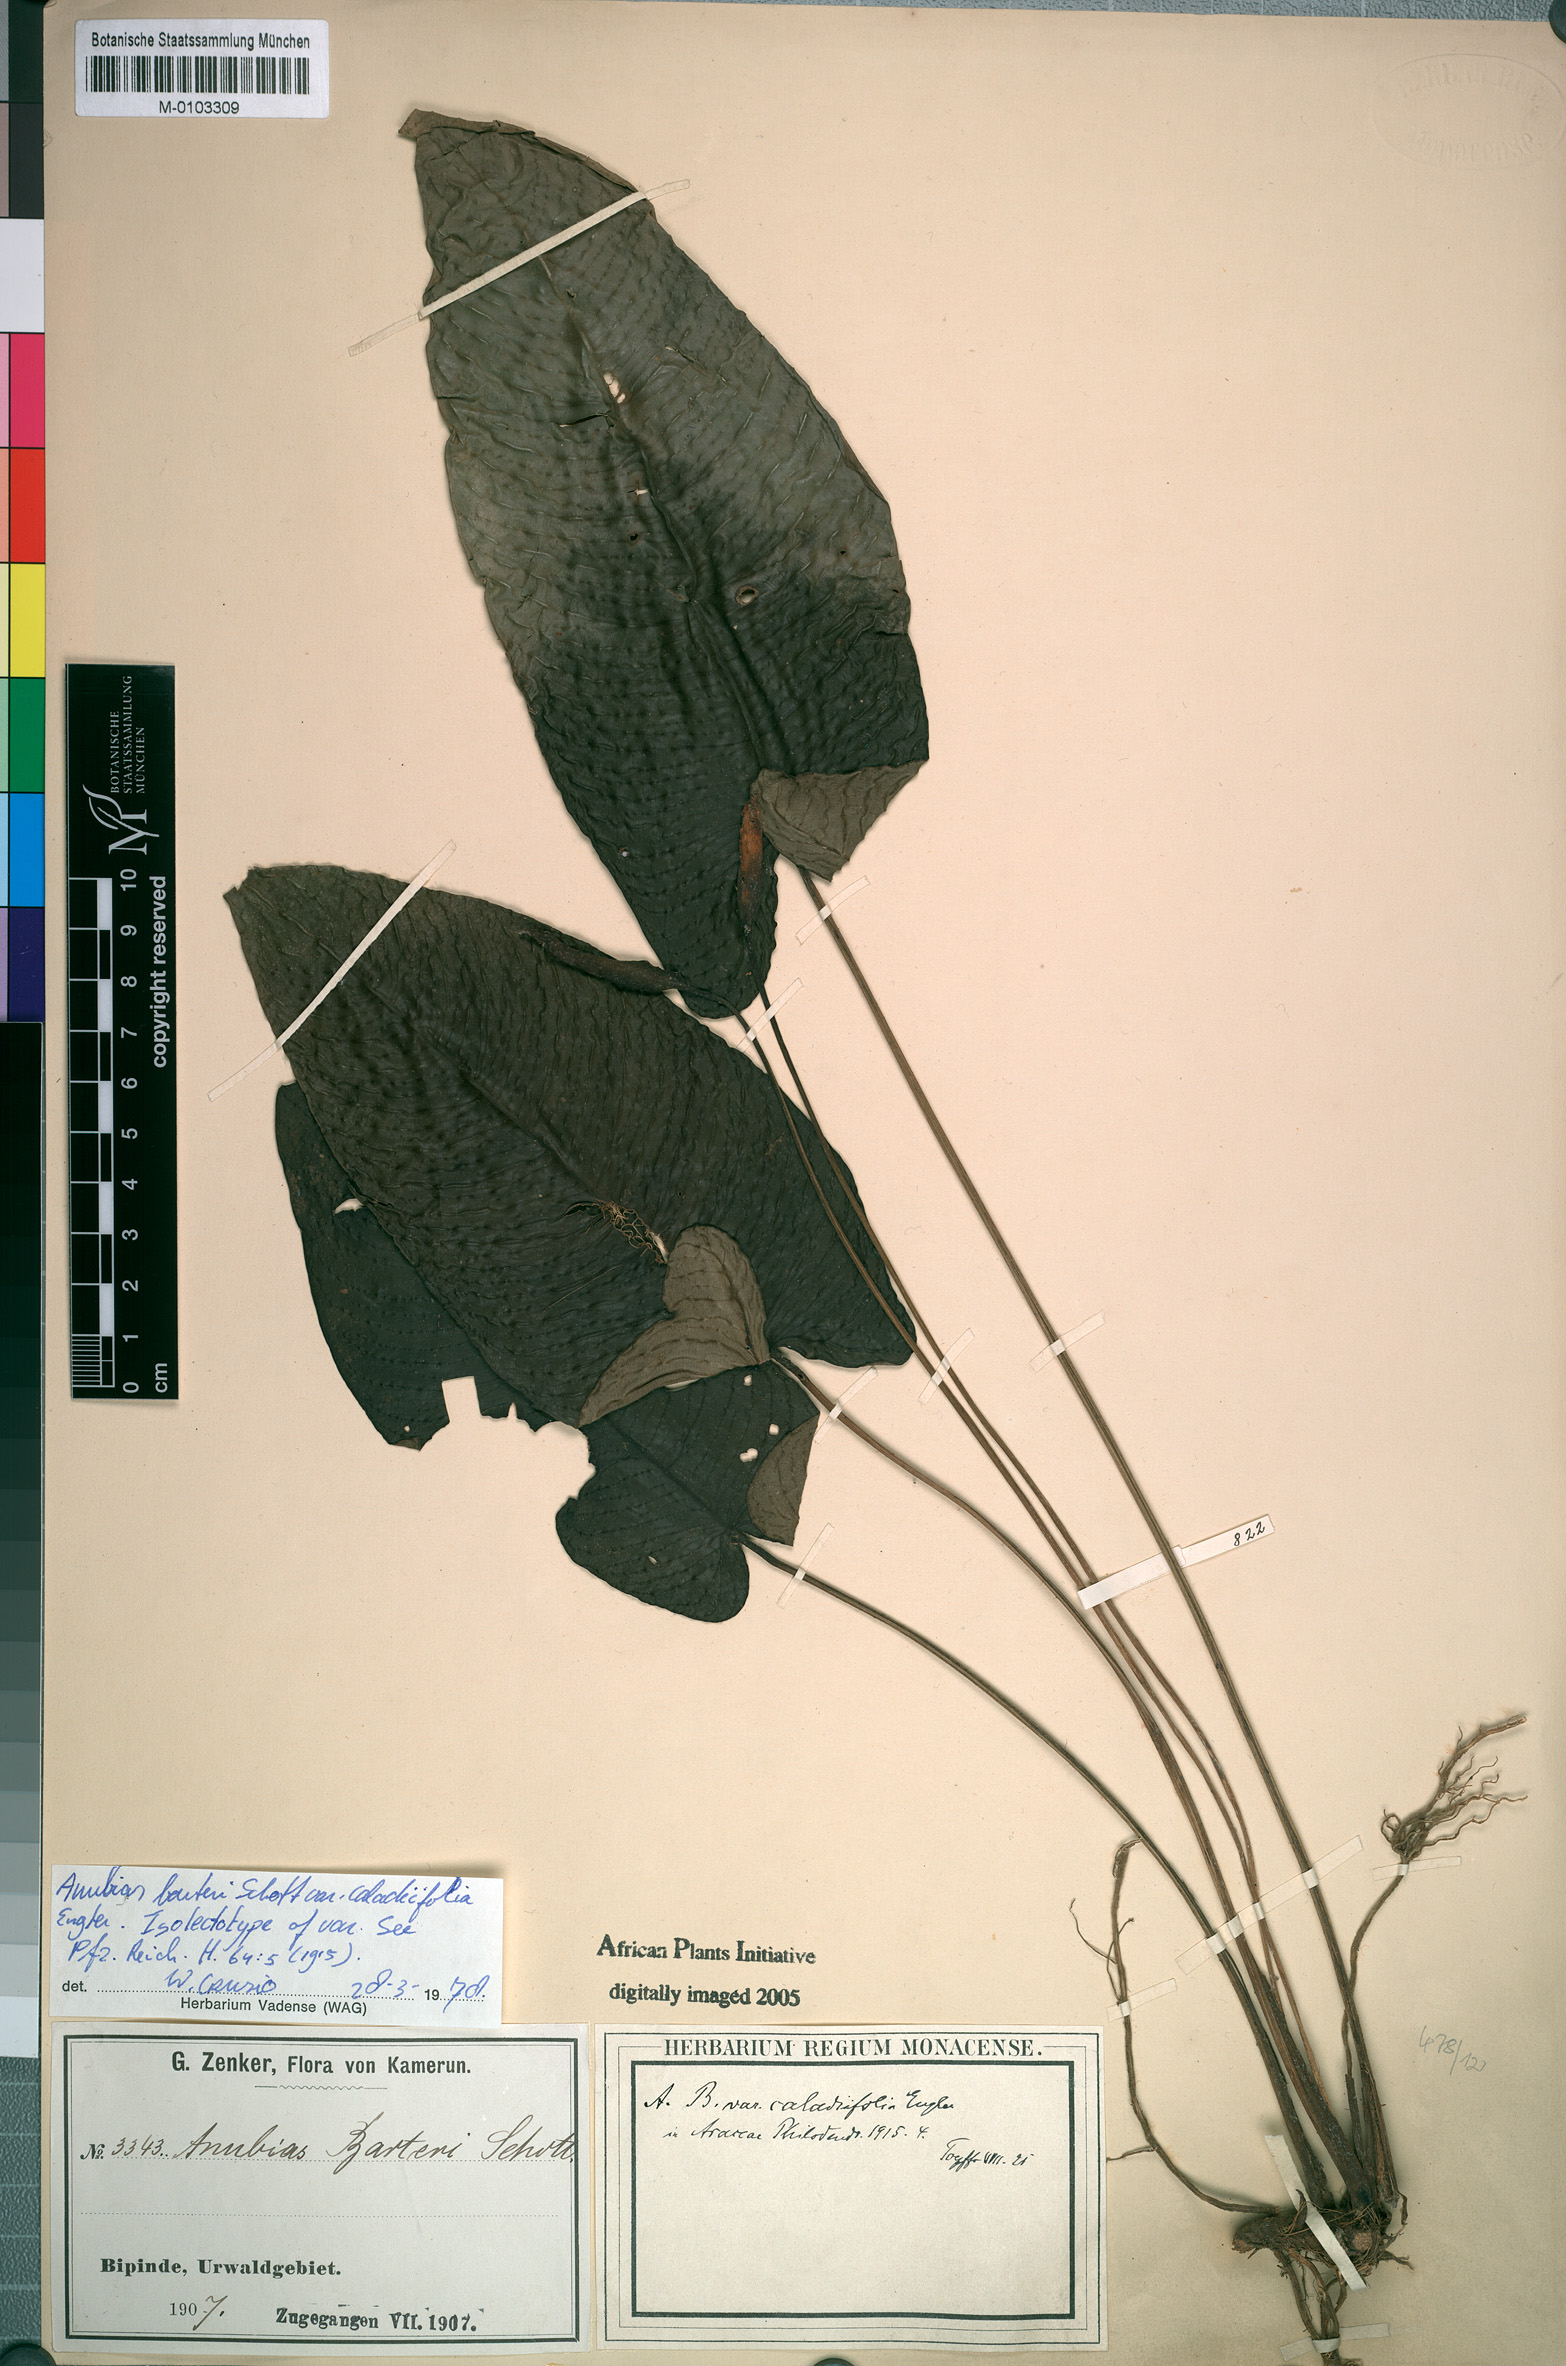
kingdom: Plantae
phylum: Tracheophyta
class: Liliopsida
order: Alismatales
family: Araceae
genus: Anubias
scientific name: Anubias barteri
